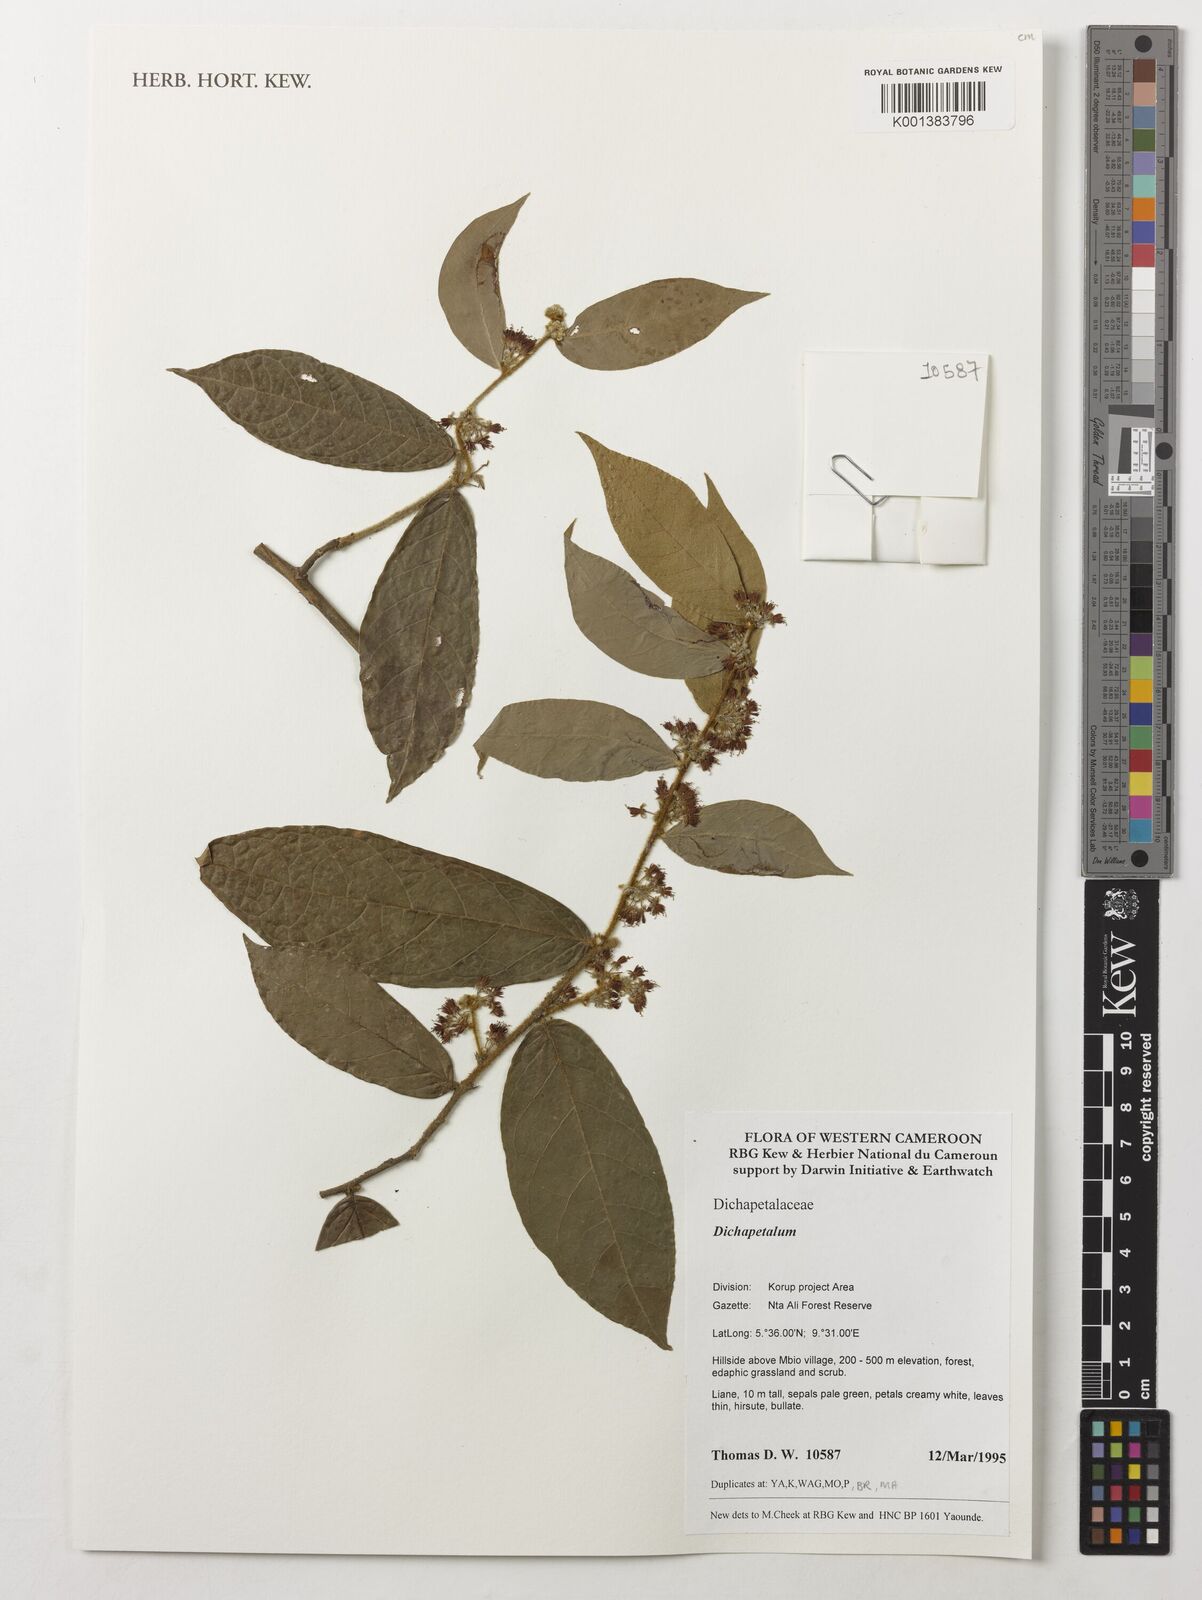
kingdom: Plantae
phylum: Tracheophyta
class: Magnoliopsida
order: Malpighiales
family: Dichapetalaceae
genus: Dichapetalum
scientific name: Dichapetalum
